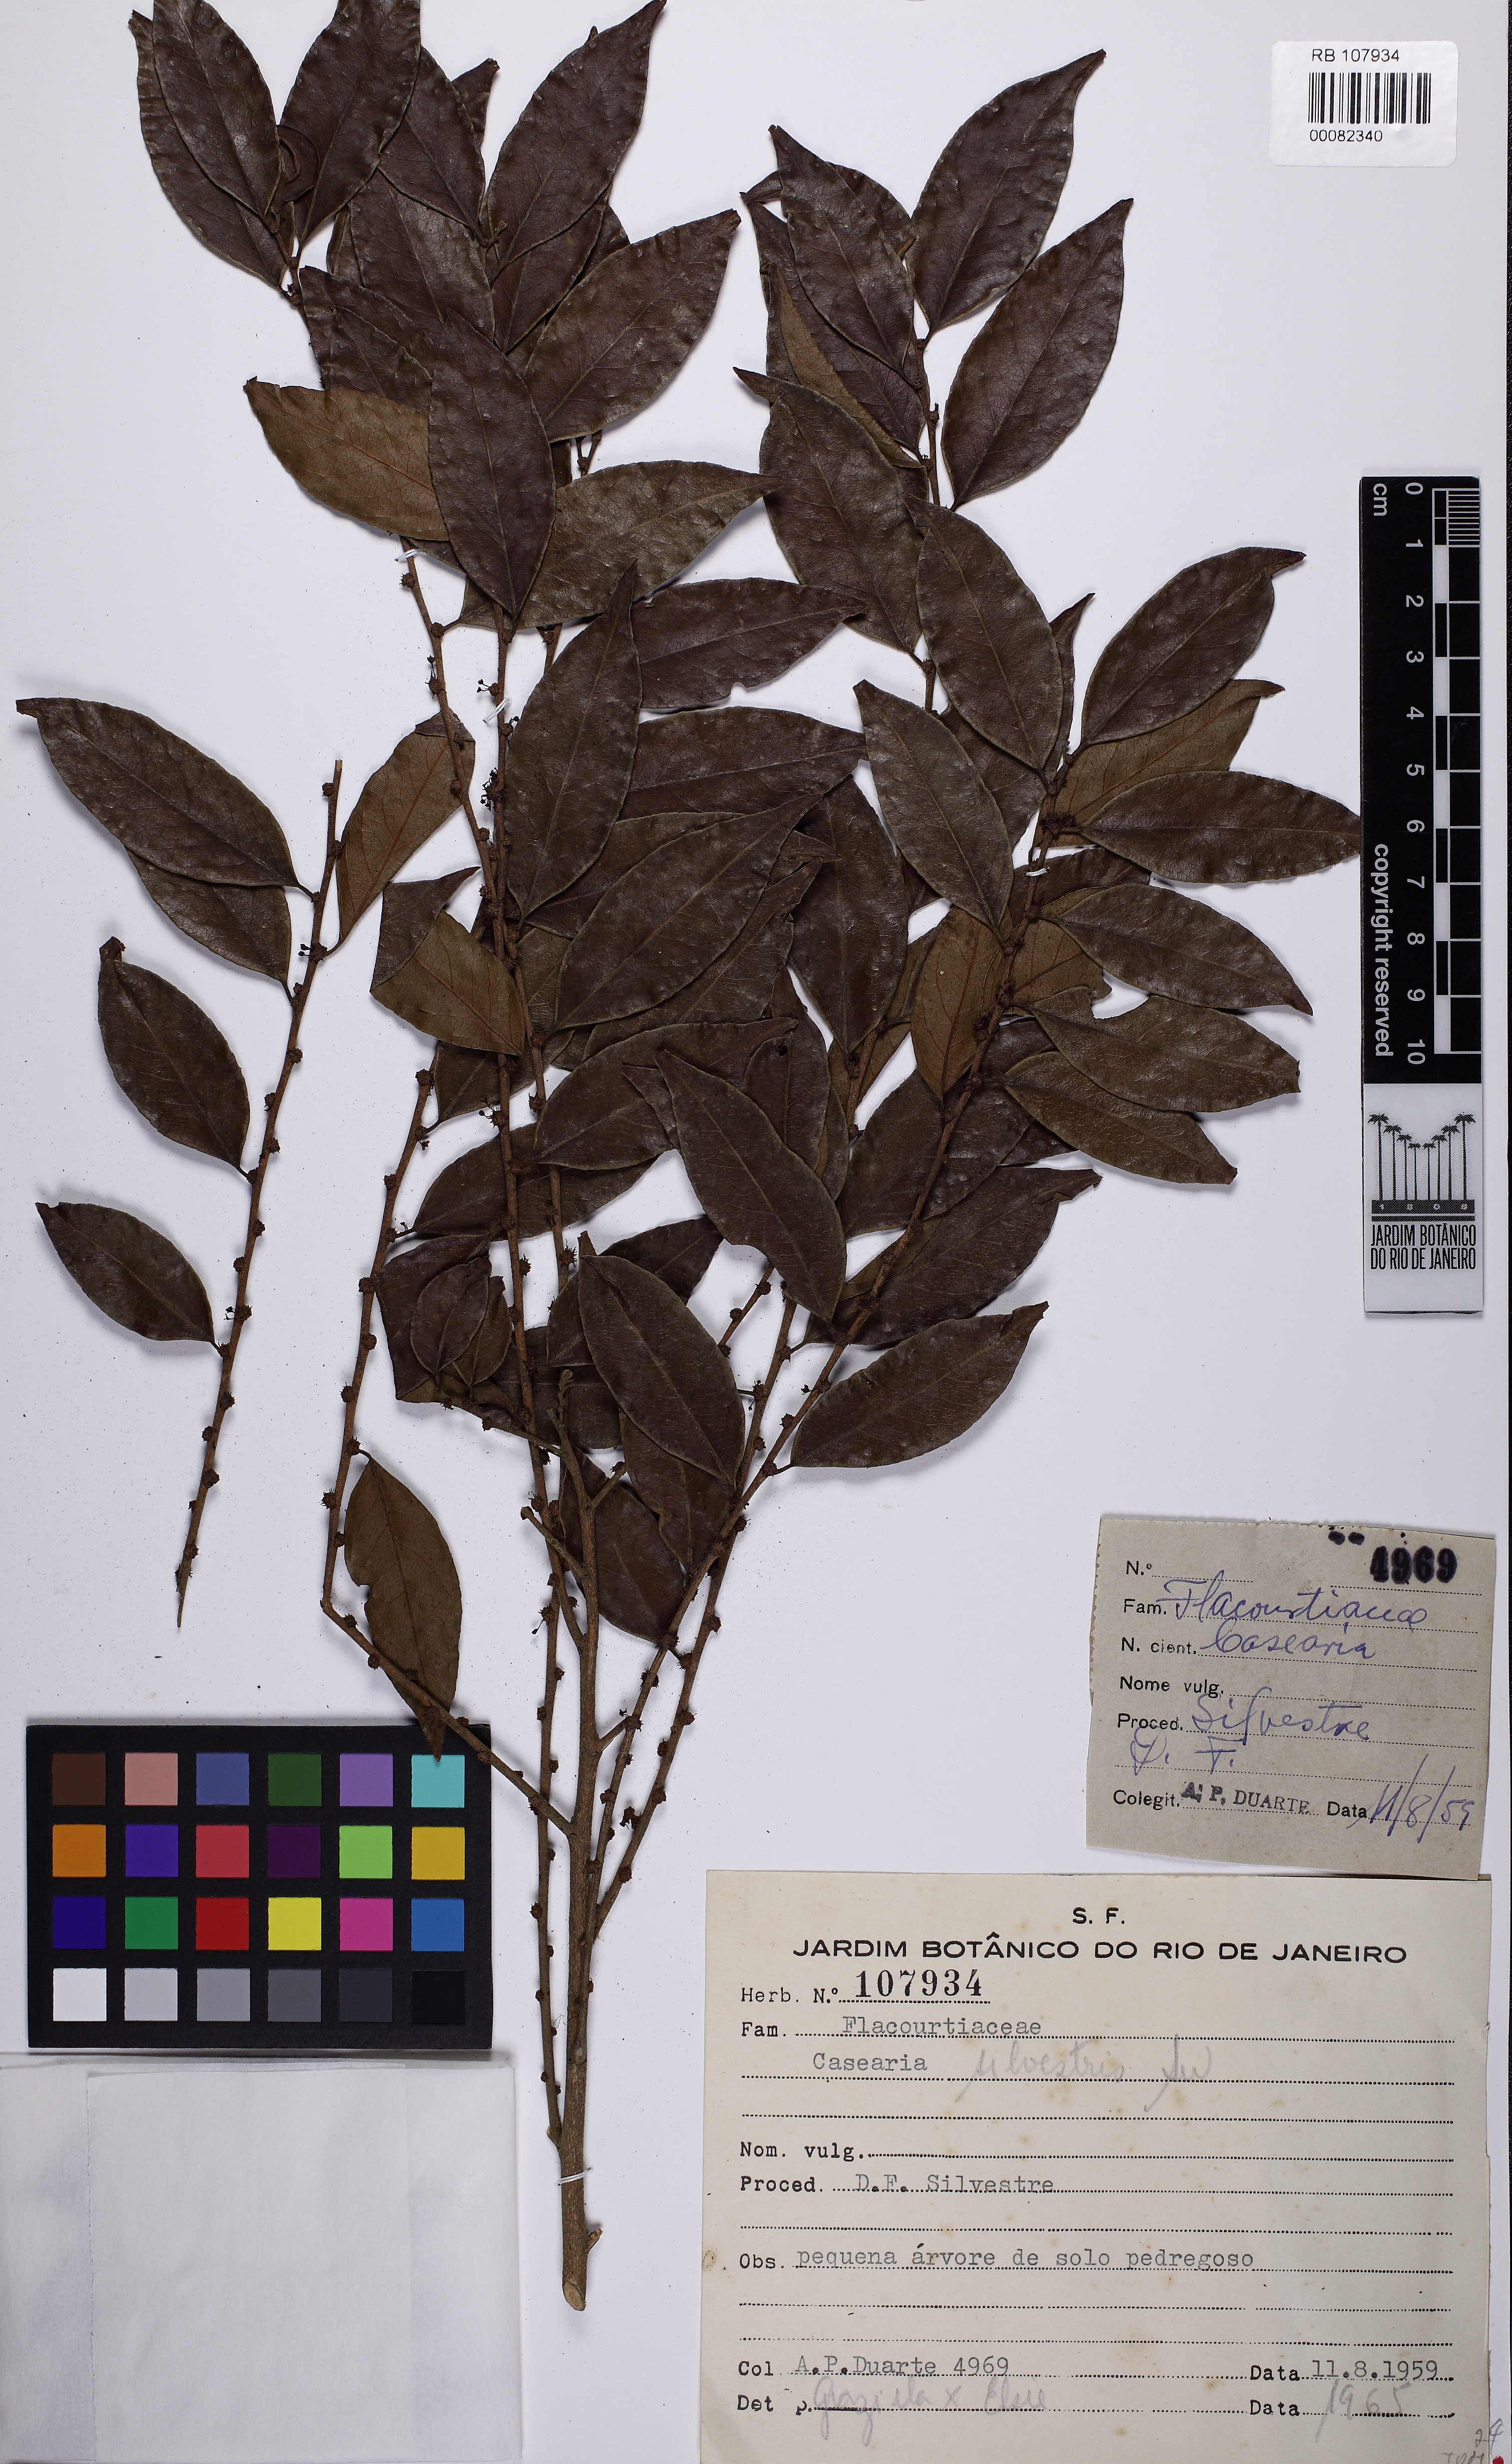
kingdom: Plantae
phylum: Tracheophyta
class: Magnoliopsida
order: Malpighiales
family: Salicaceae
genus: Casearia
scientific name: Casearia sylvestris
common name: Wild sage
